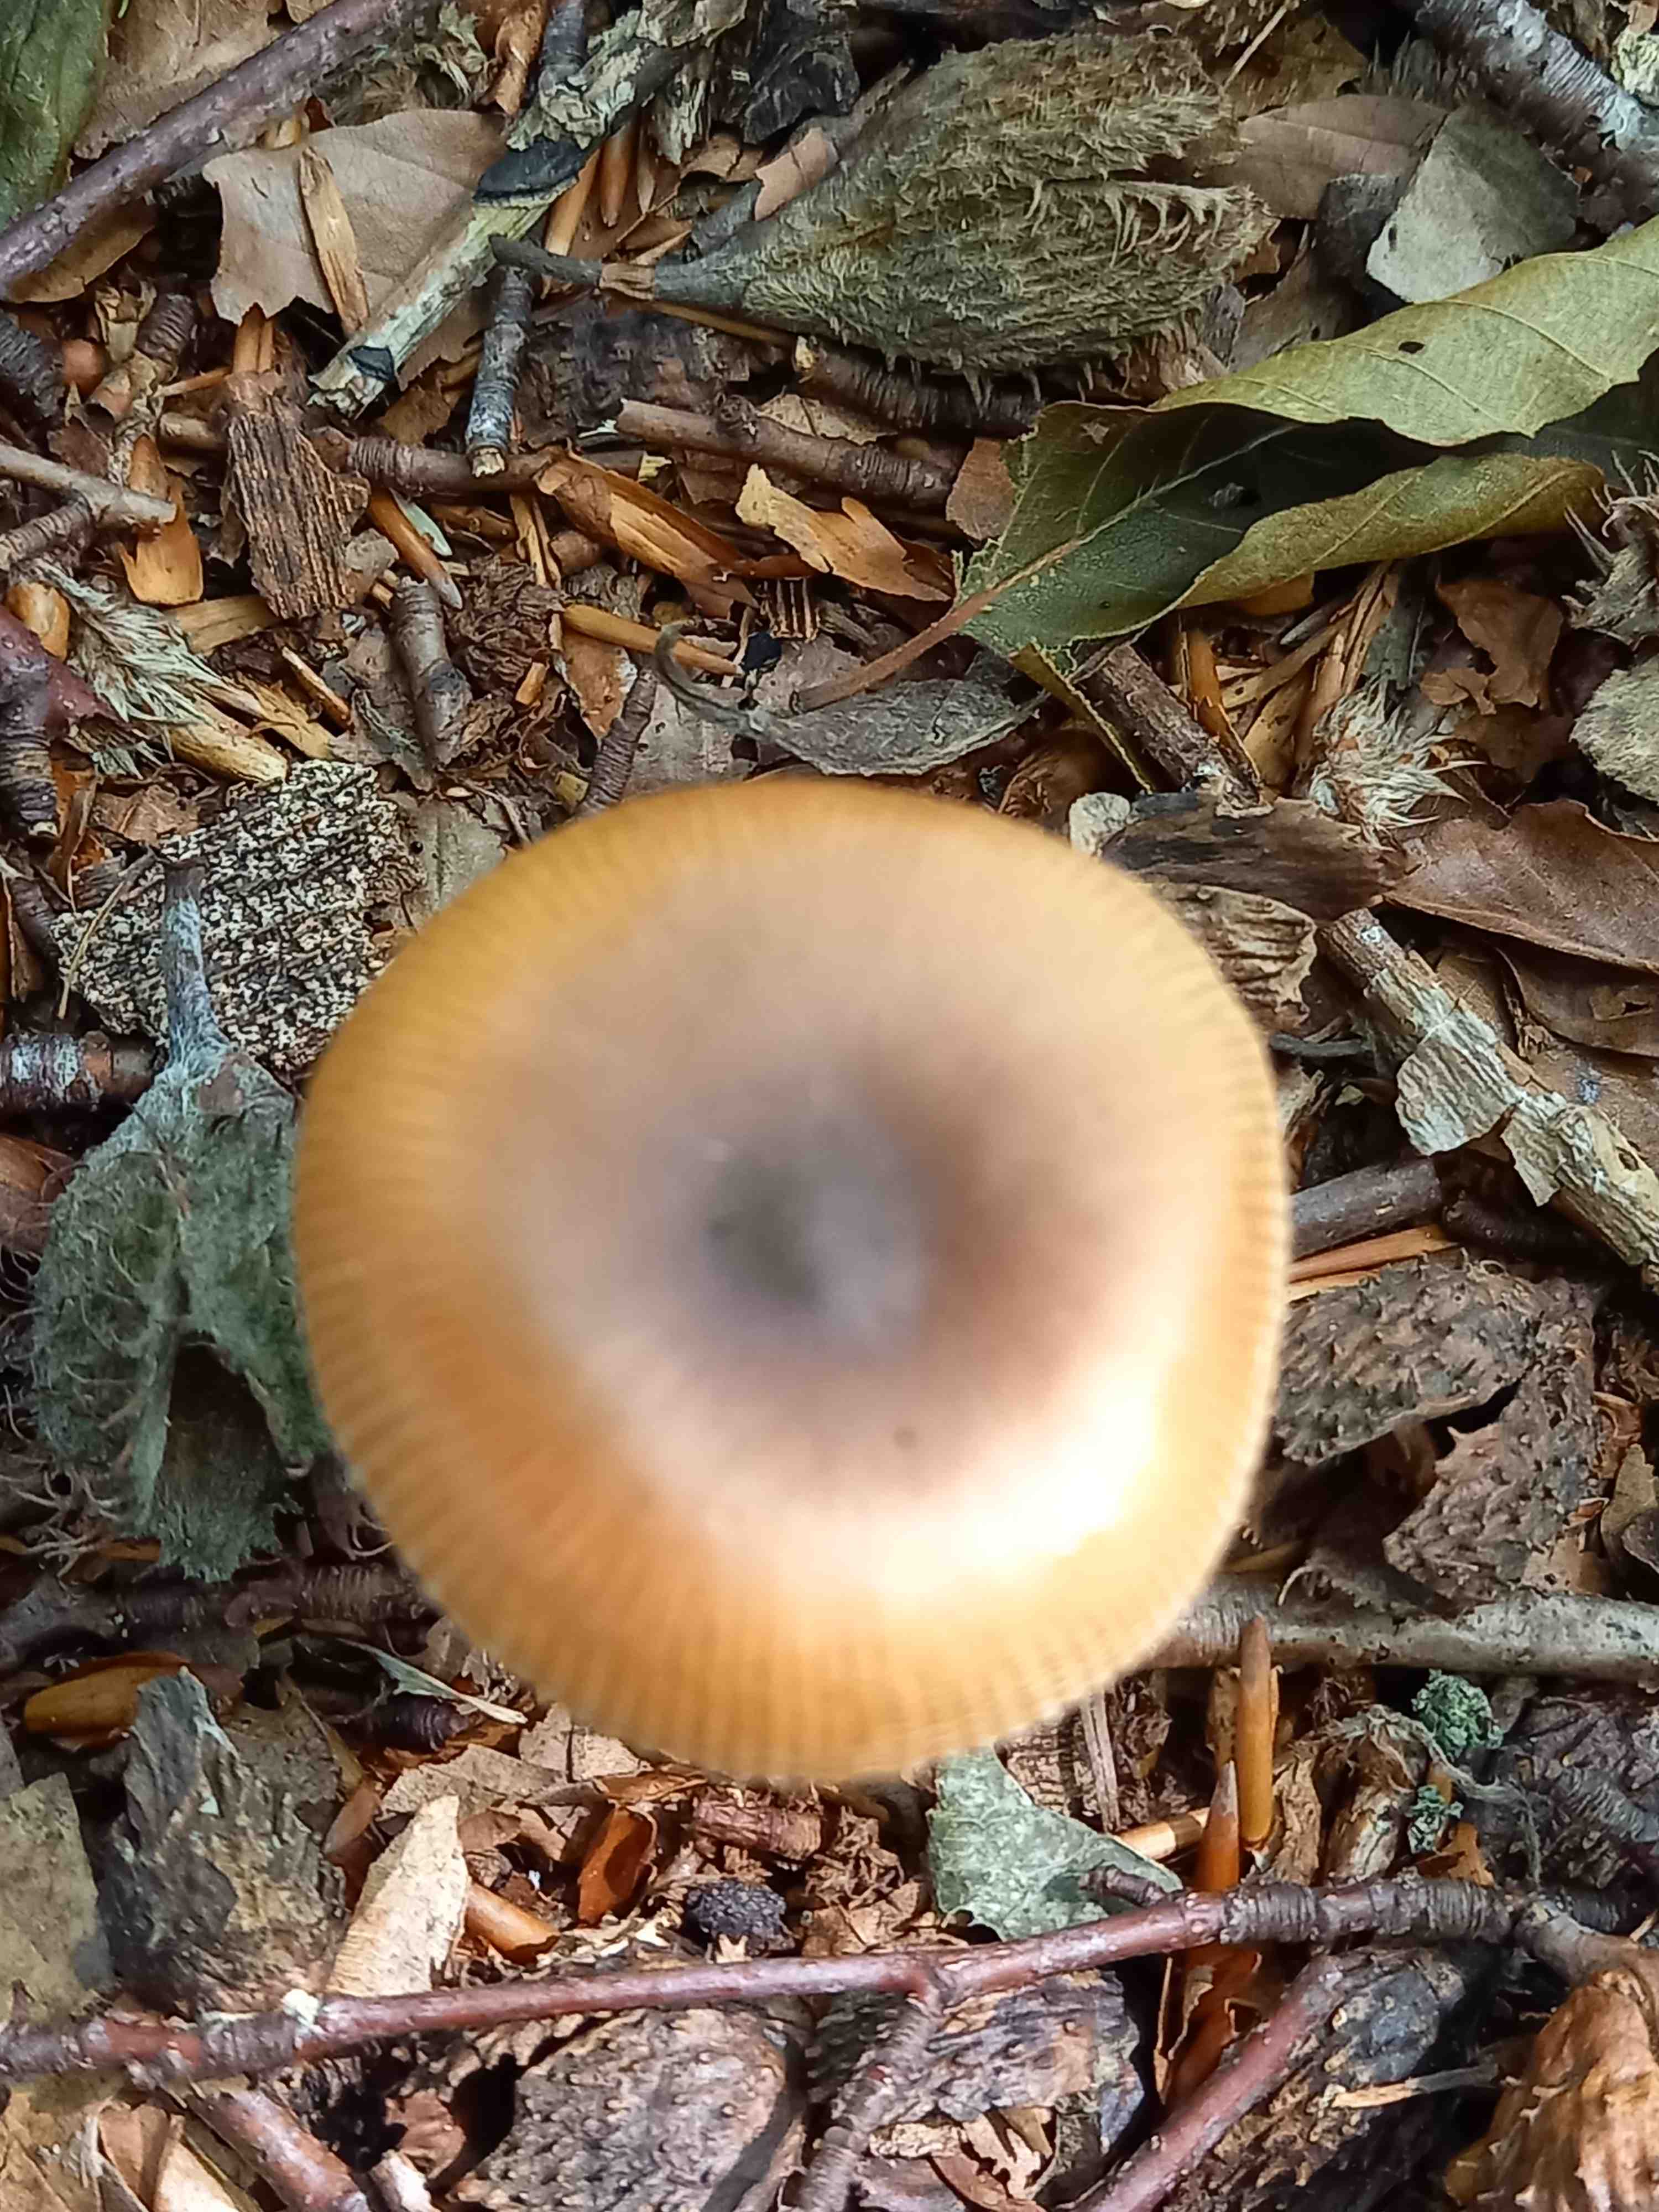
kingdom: Fungi
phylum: Basidiomycota
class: Agaricomycetes
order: Agaricales
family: Amanitaceae
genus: Amanita
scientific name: Amanita fulva
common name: brun kam-fluesvamp
